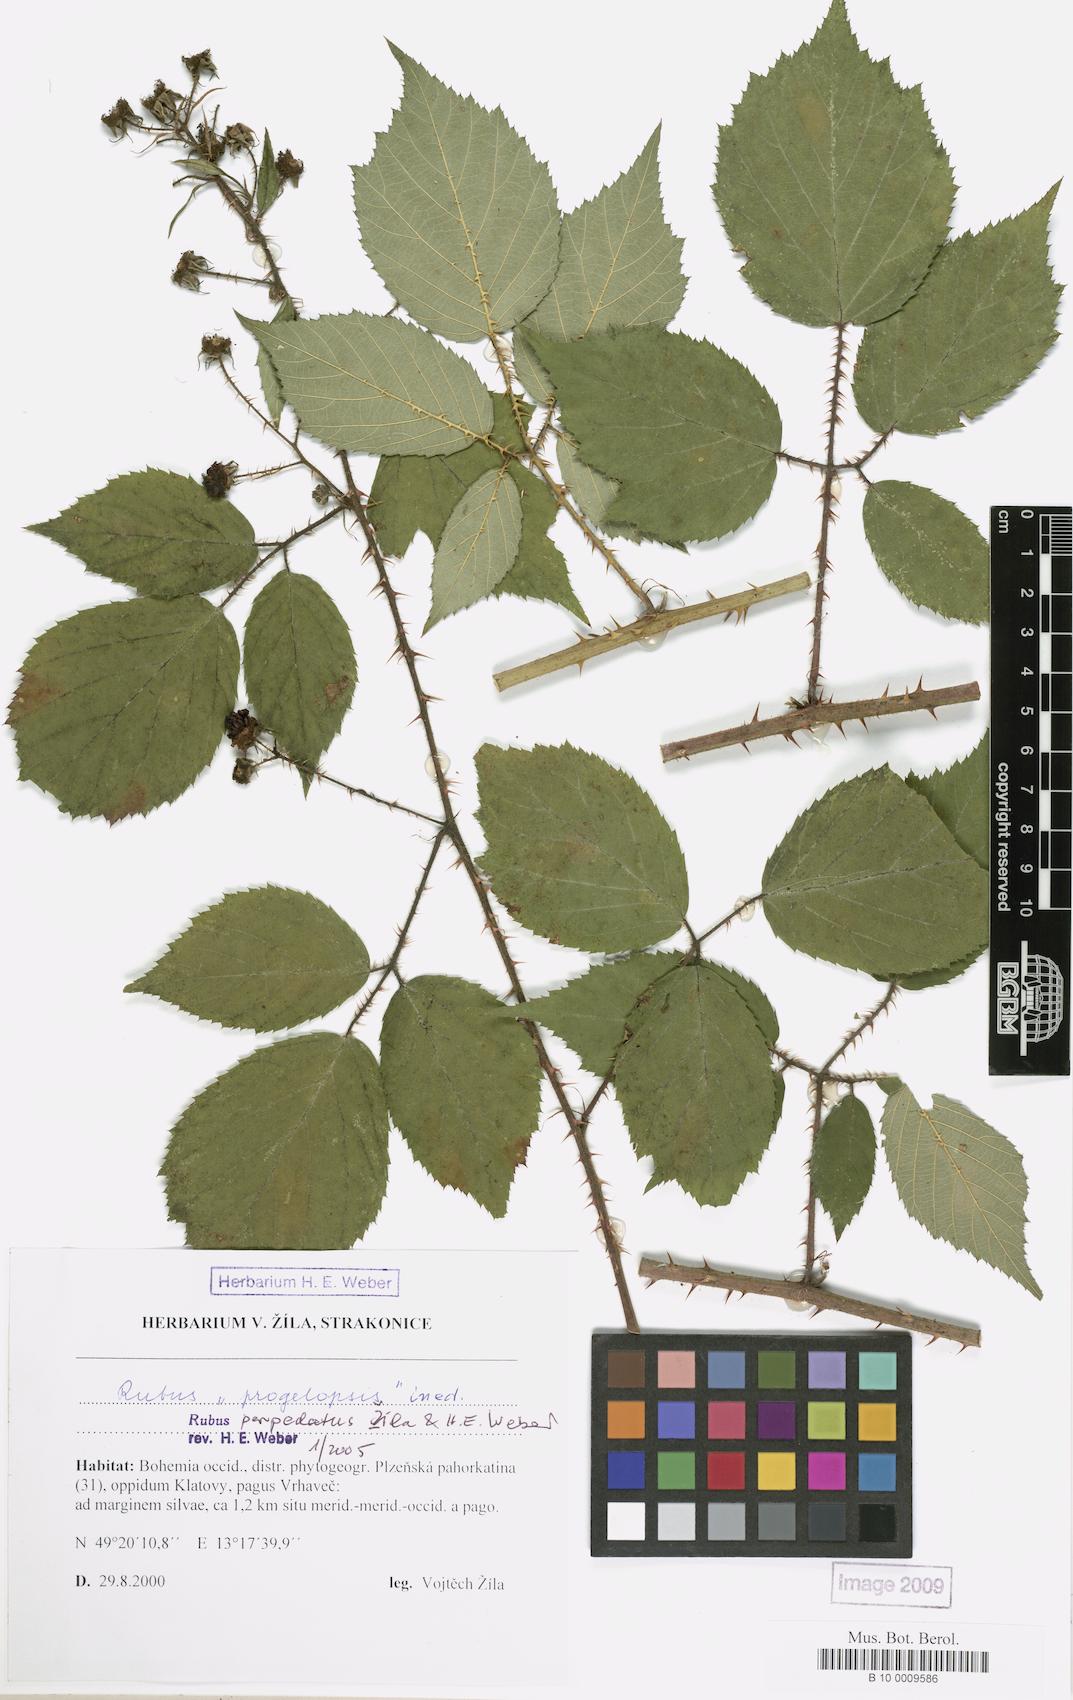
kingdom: Plantae
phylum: Tracheophyta
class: Magnoliopsida
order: Rosales
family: Rosaceae
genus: Rubus
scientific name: Rubus perpedatus
